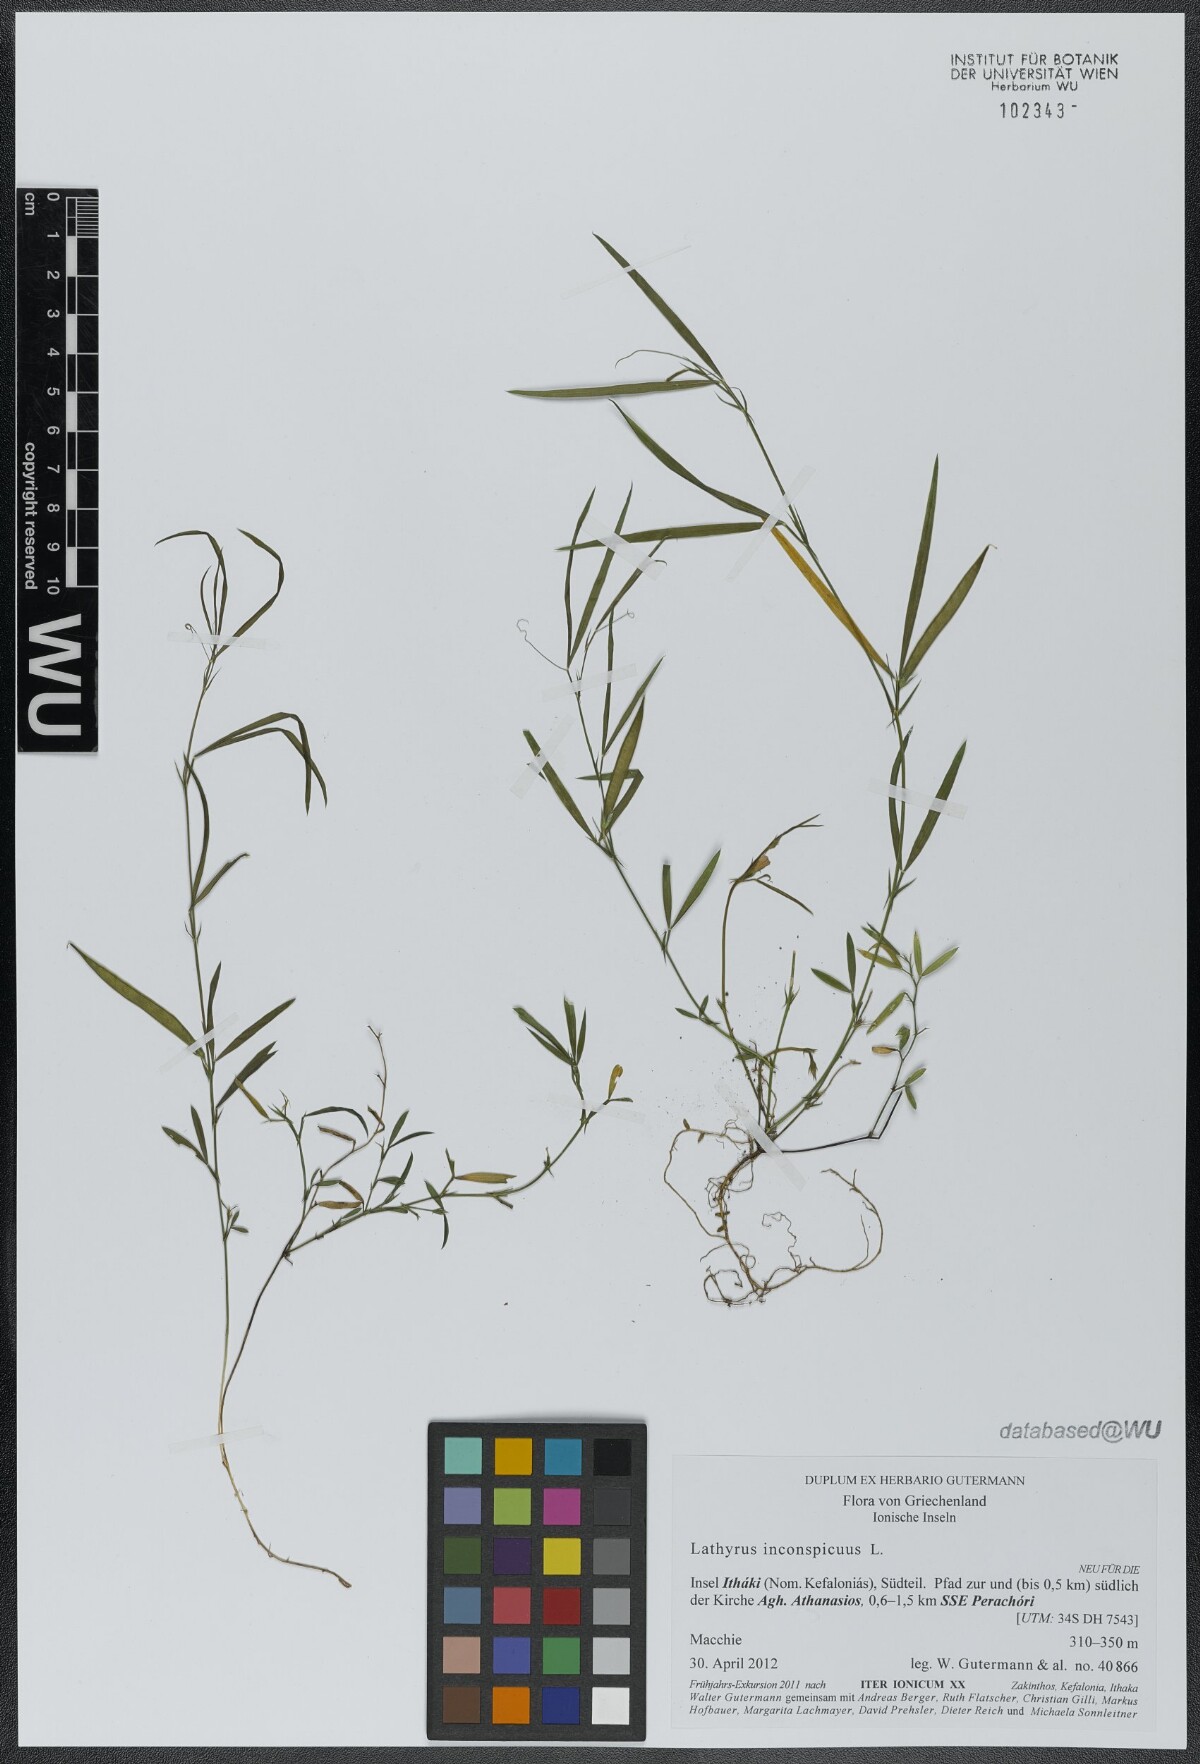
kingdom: Plantae
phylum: Tracheophyta
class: Magnoliopsida
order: Fabales
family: Fabaceae
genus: Lathyrus
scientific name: Lathyrus inconspicuus
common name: Inconspicuous pea
